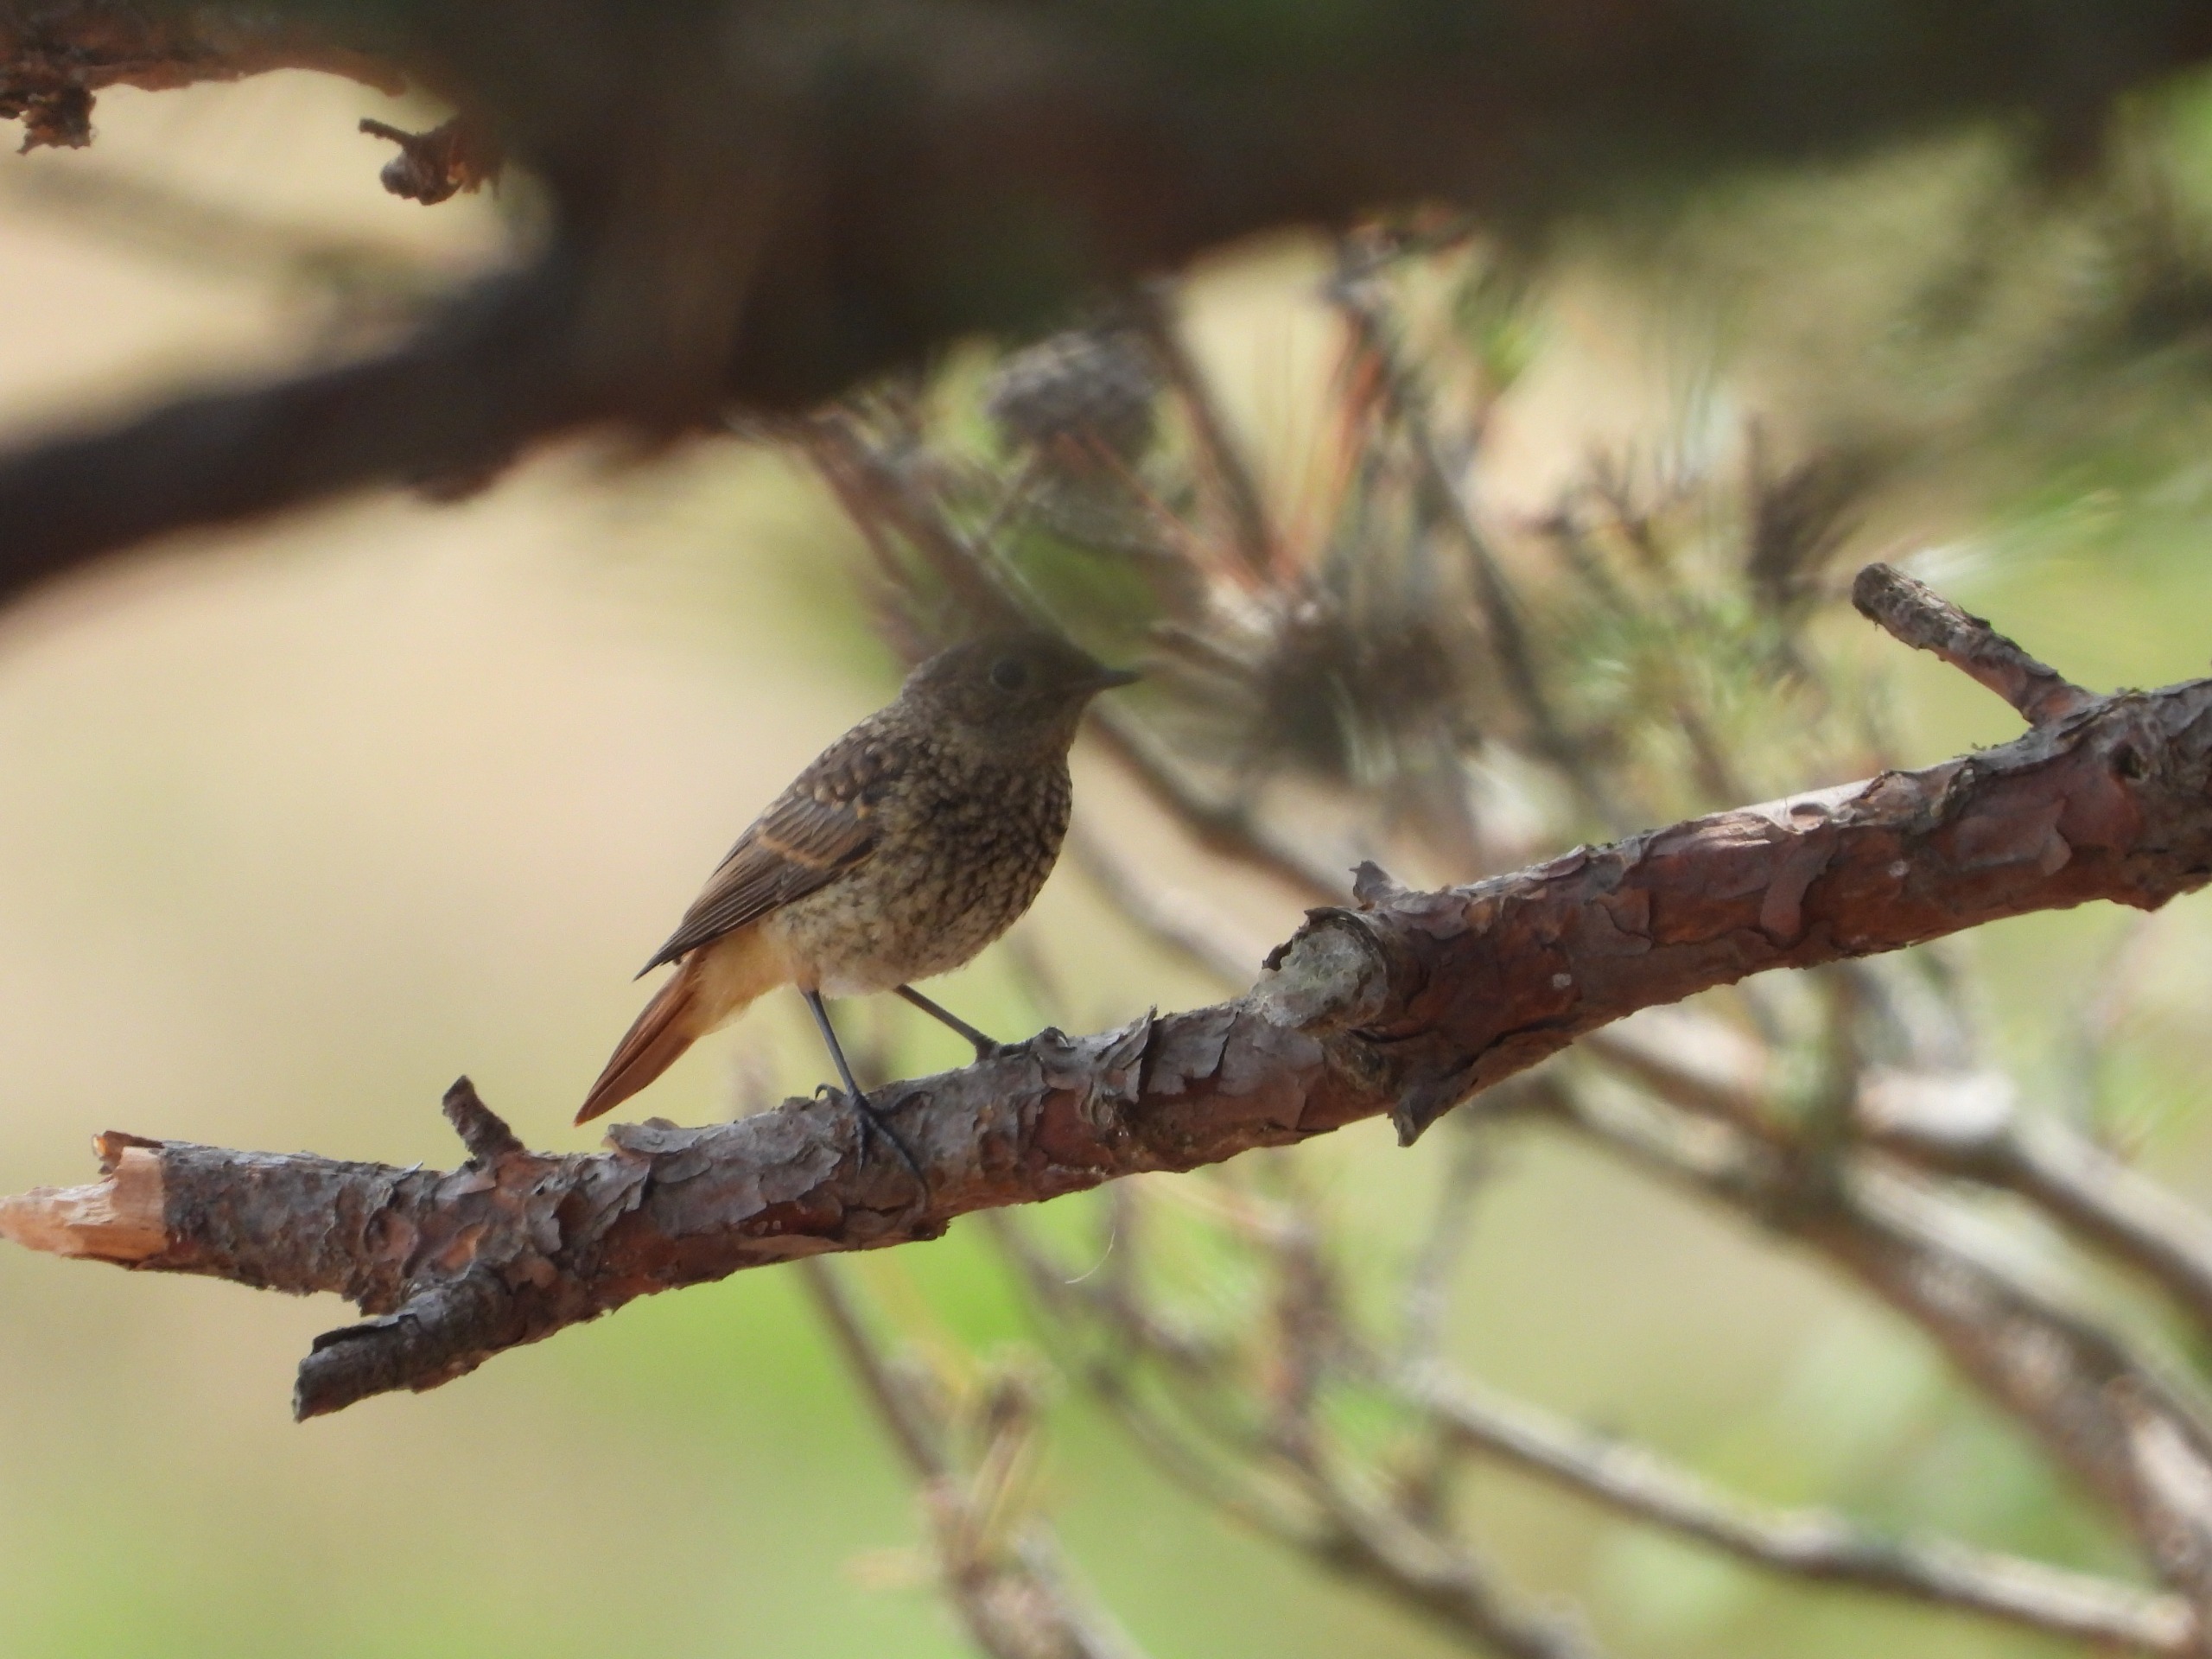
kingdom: Animalia
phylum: Chordata
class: Aves
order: Passeriformes
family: Muscicapidae
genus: Phoenicurus
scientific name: Phoenicurus phoenicurus
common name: Rødstjert
